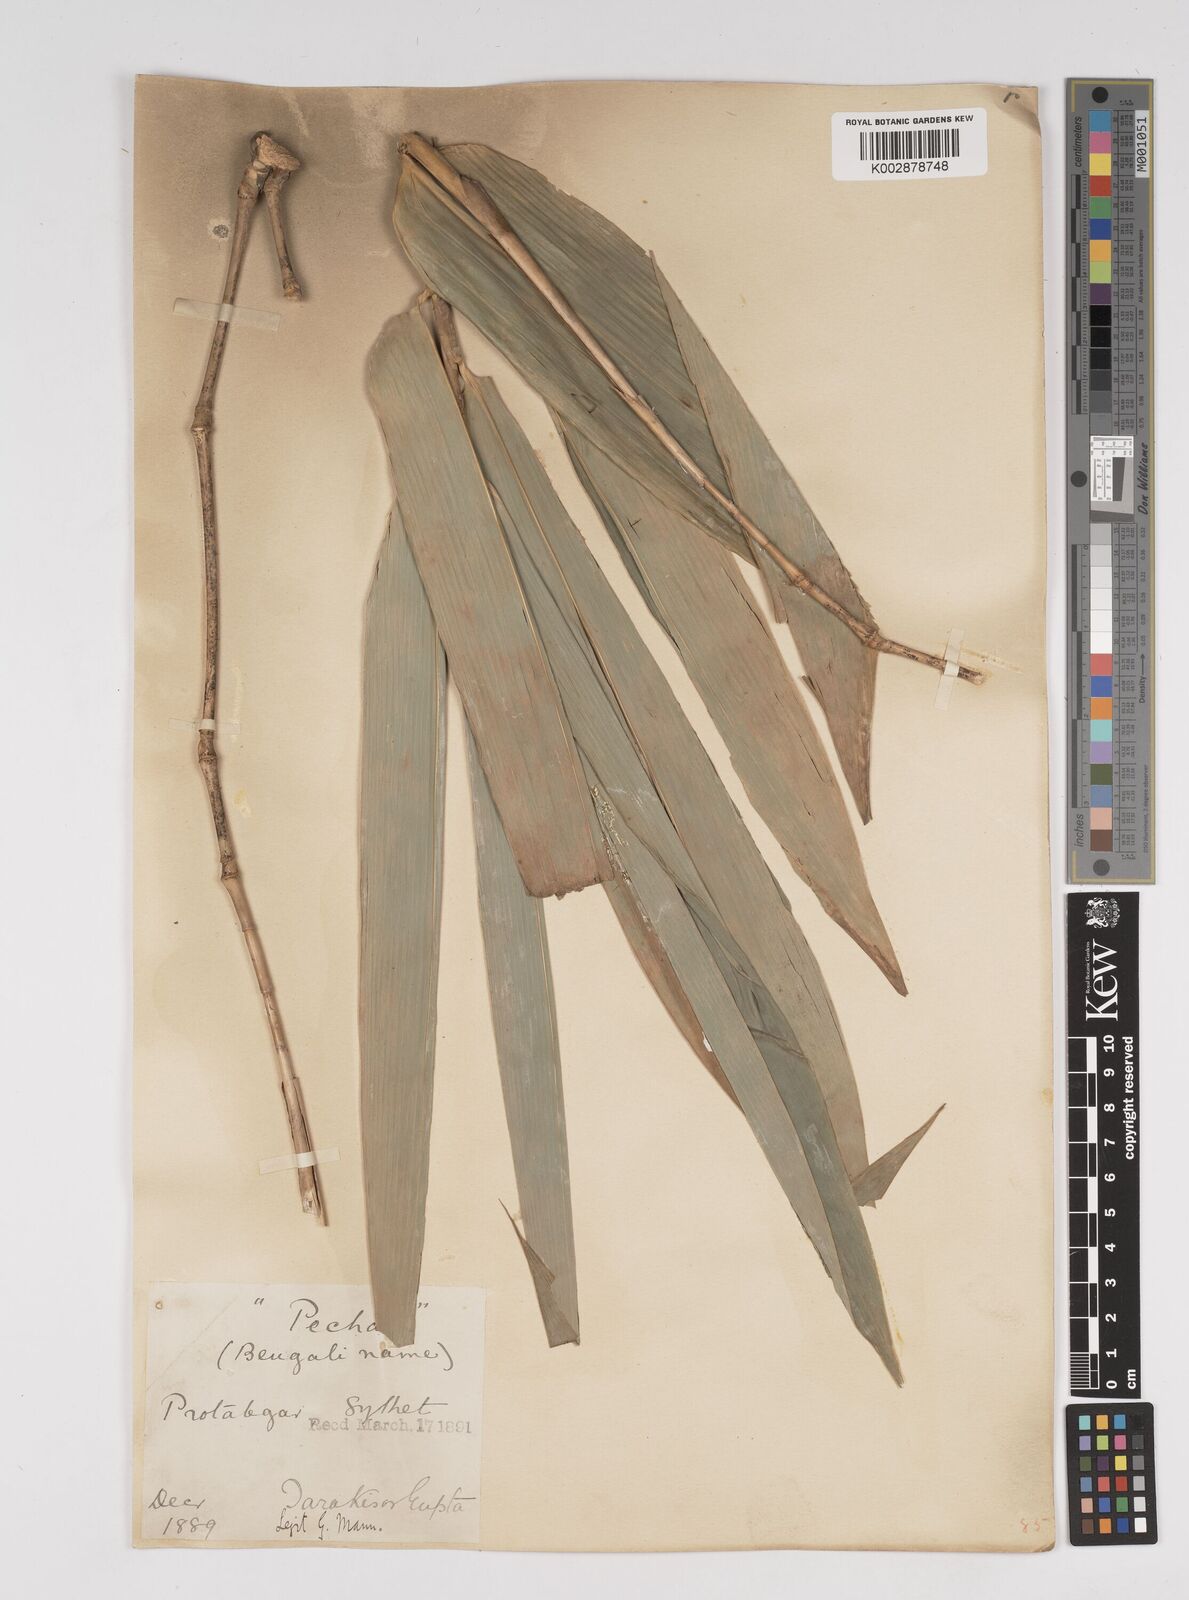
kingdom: Plantae
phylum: Tracheophyta
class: Liliopsida
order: Poales
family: Poaceae
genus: Dendrocalamus
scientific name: Dendrocalamus hamiltonii
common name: Tama bamboo
